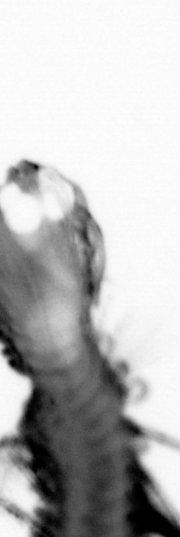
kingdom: Animalia
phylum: Annelida
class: Polychaeta
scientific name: Polychaeta
